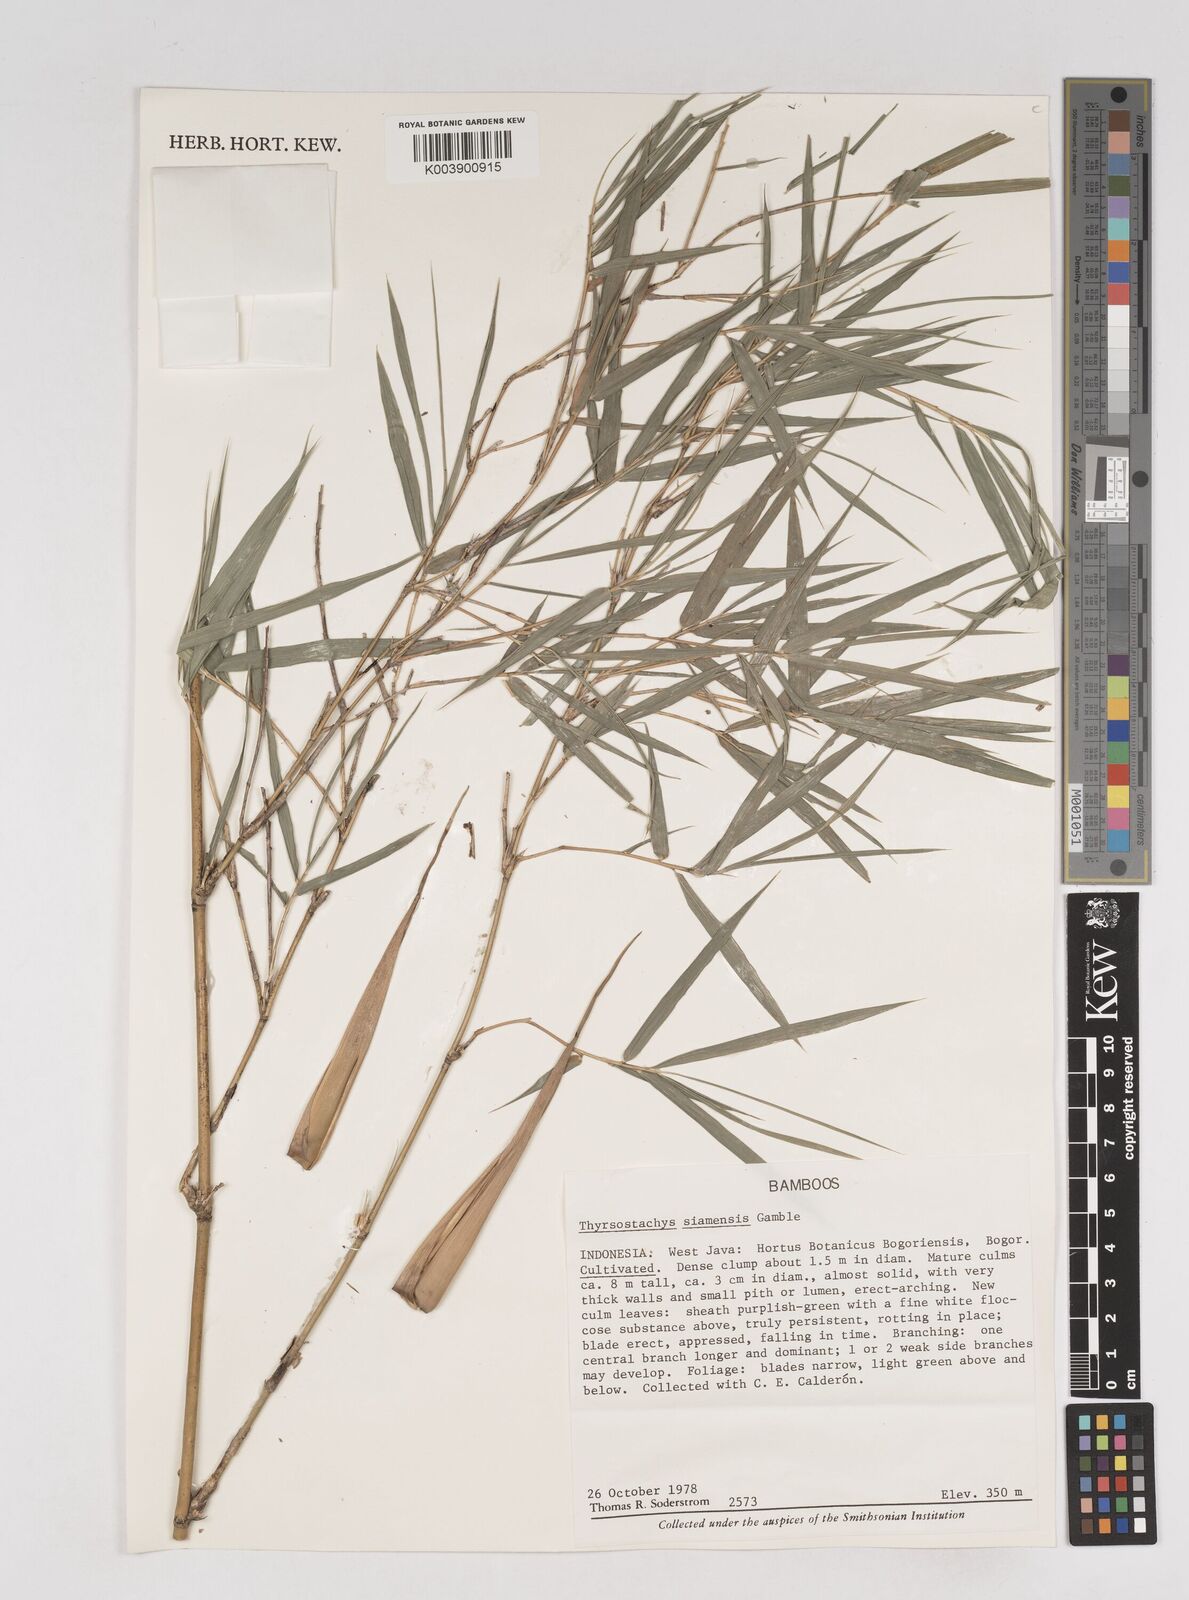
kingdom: Plantae
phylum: Tracheophyta
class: Liliopsida
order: Poales
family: Poaceae
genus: Thyrsostachys
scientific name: Thyrsostachys siamensis
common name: Thailand bamboo
